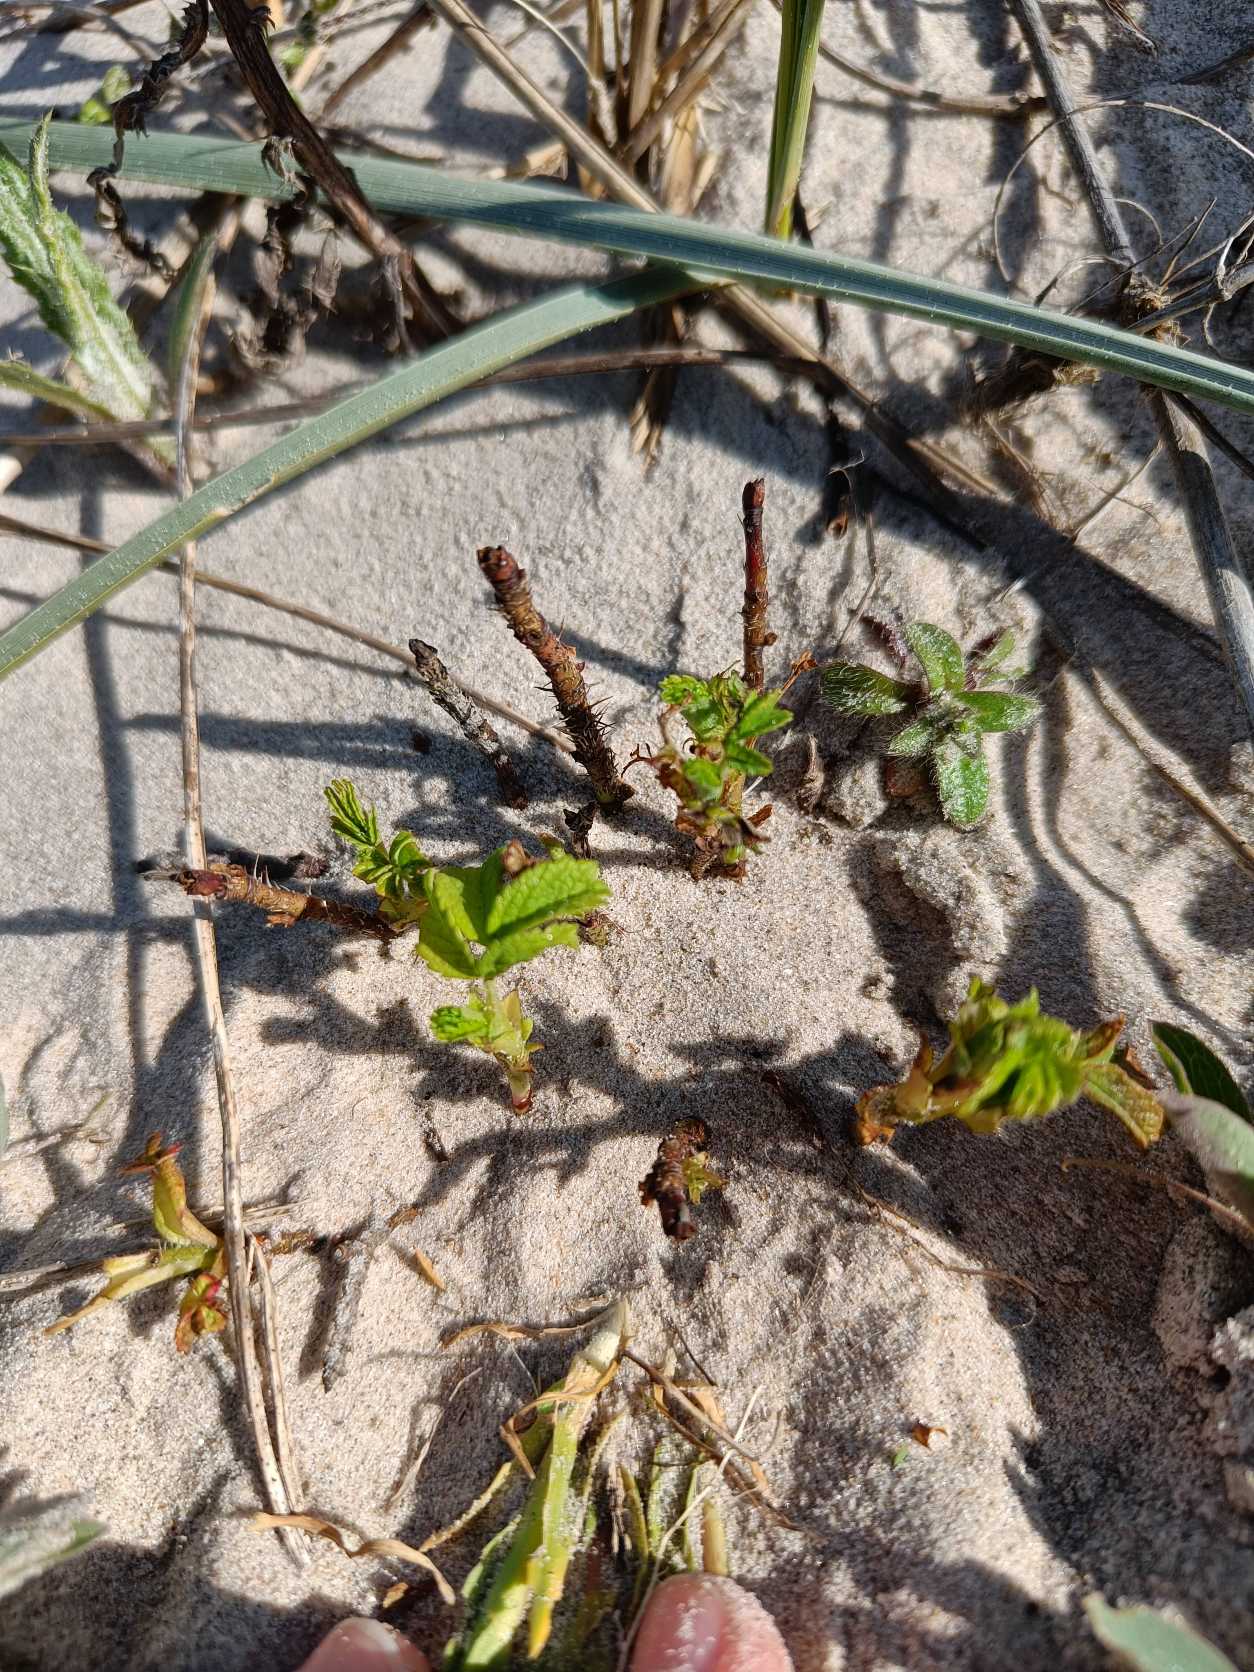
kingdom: Plantae
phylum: Tracheophyta
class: Magnoliopsida
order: Rosales
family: Rosaceae
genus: Rosa
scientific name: Rosa rugosa
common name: Rynket rose
